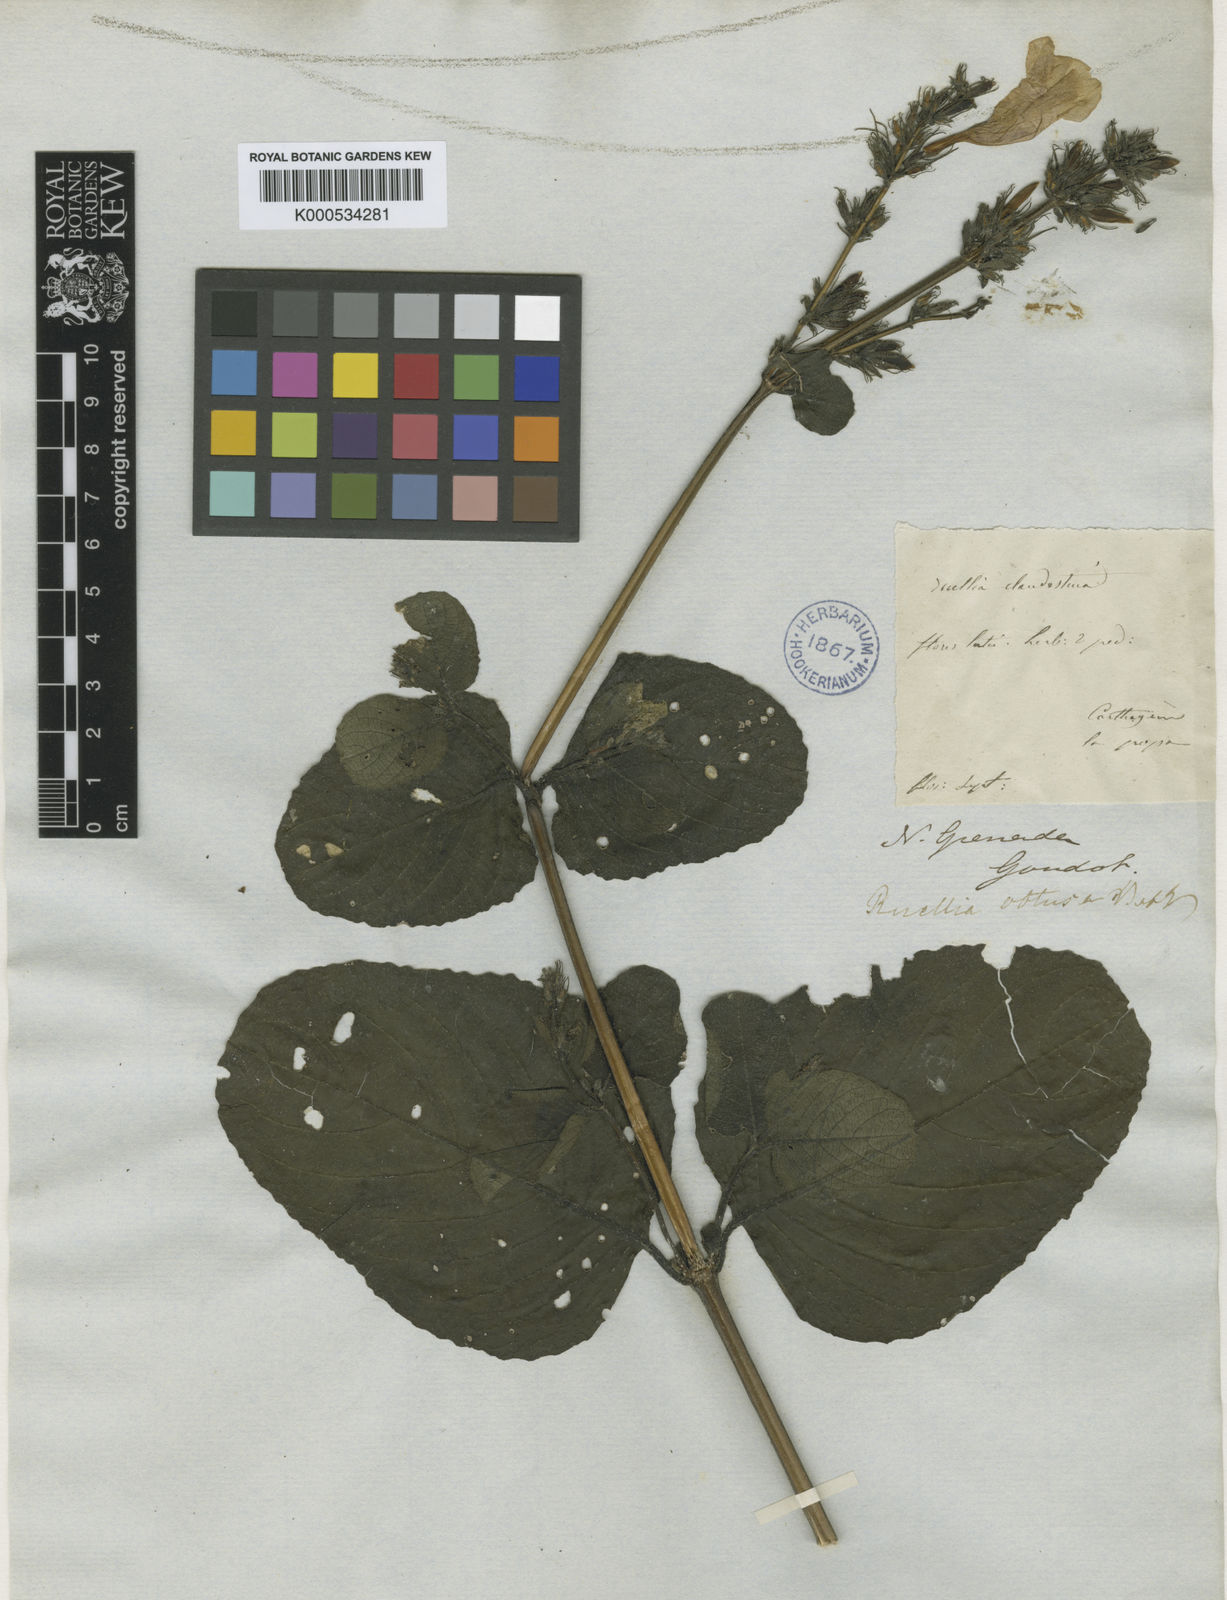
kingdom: Plantae
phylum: Tracheophyta
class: Magnoliopsida
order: Lamiales
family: Acanthaceae
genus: Ruellia
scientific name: Ruellia obtusa
